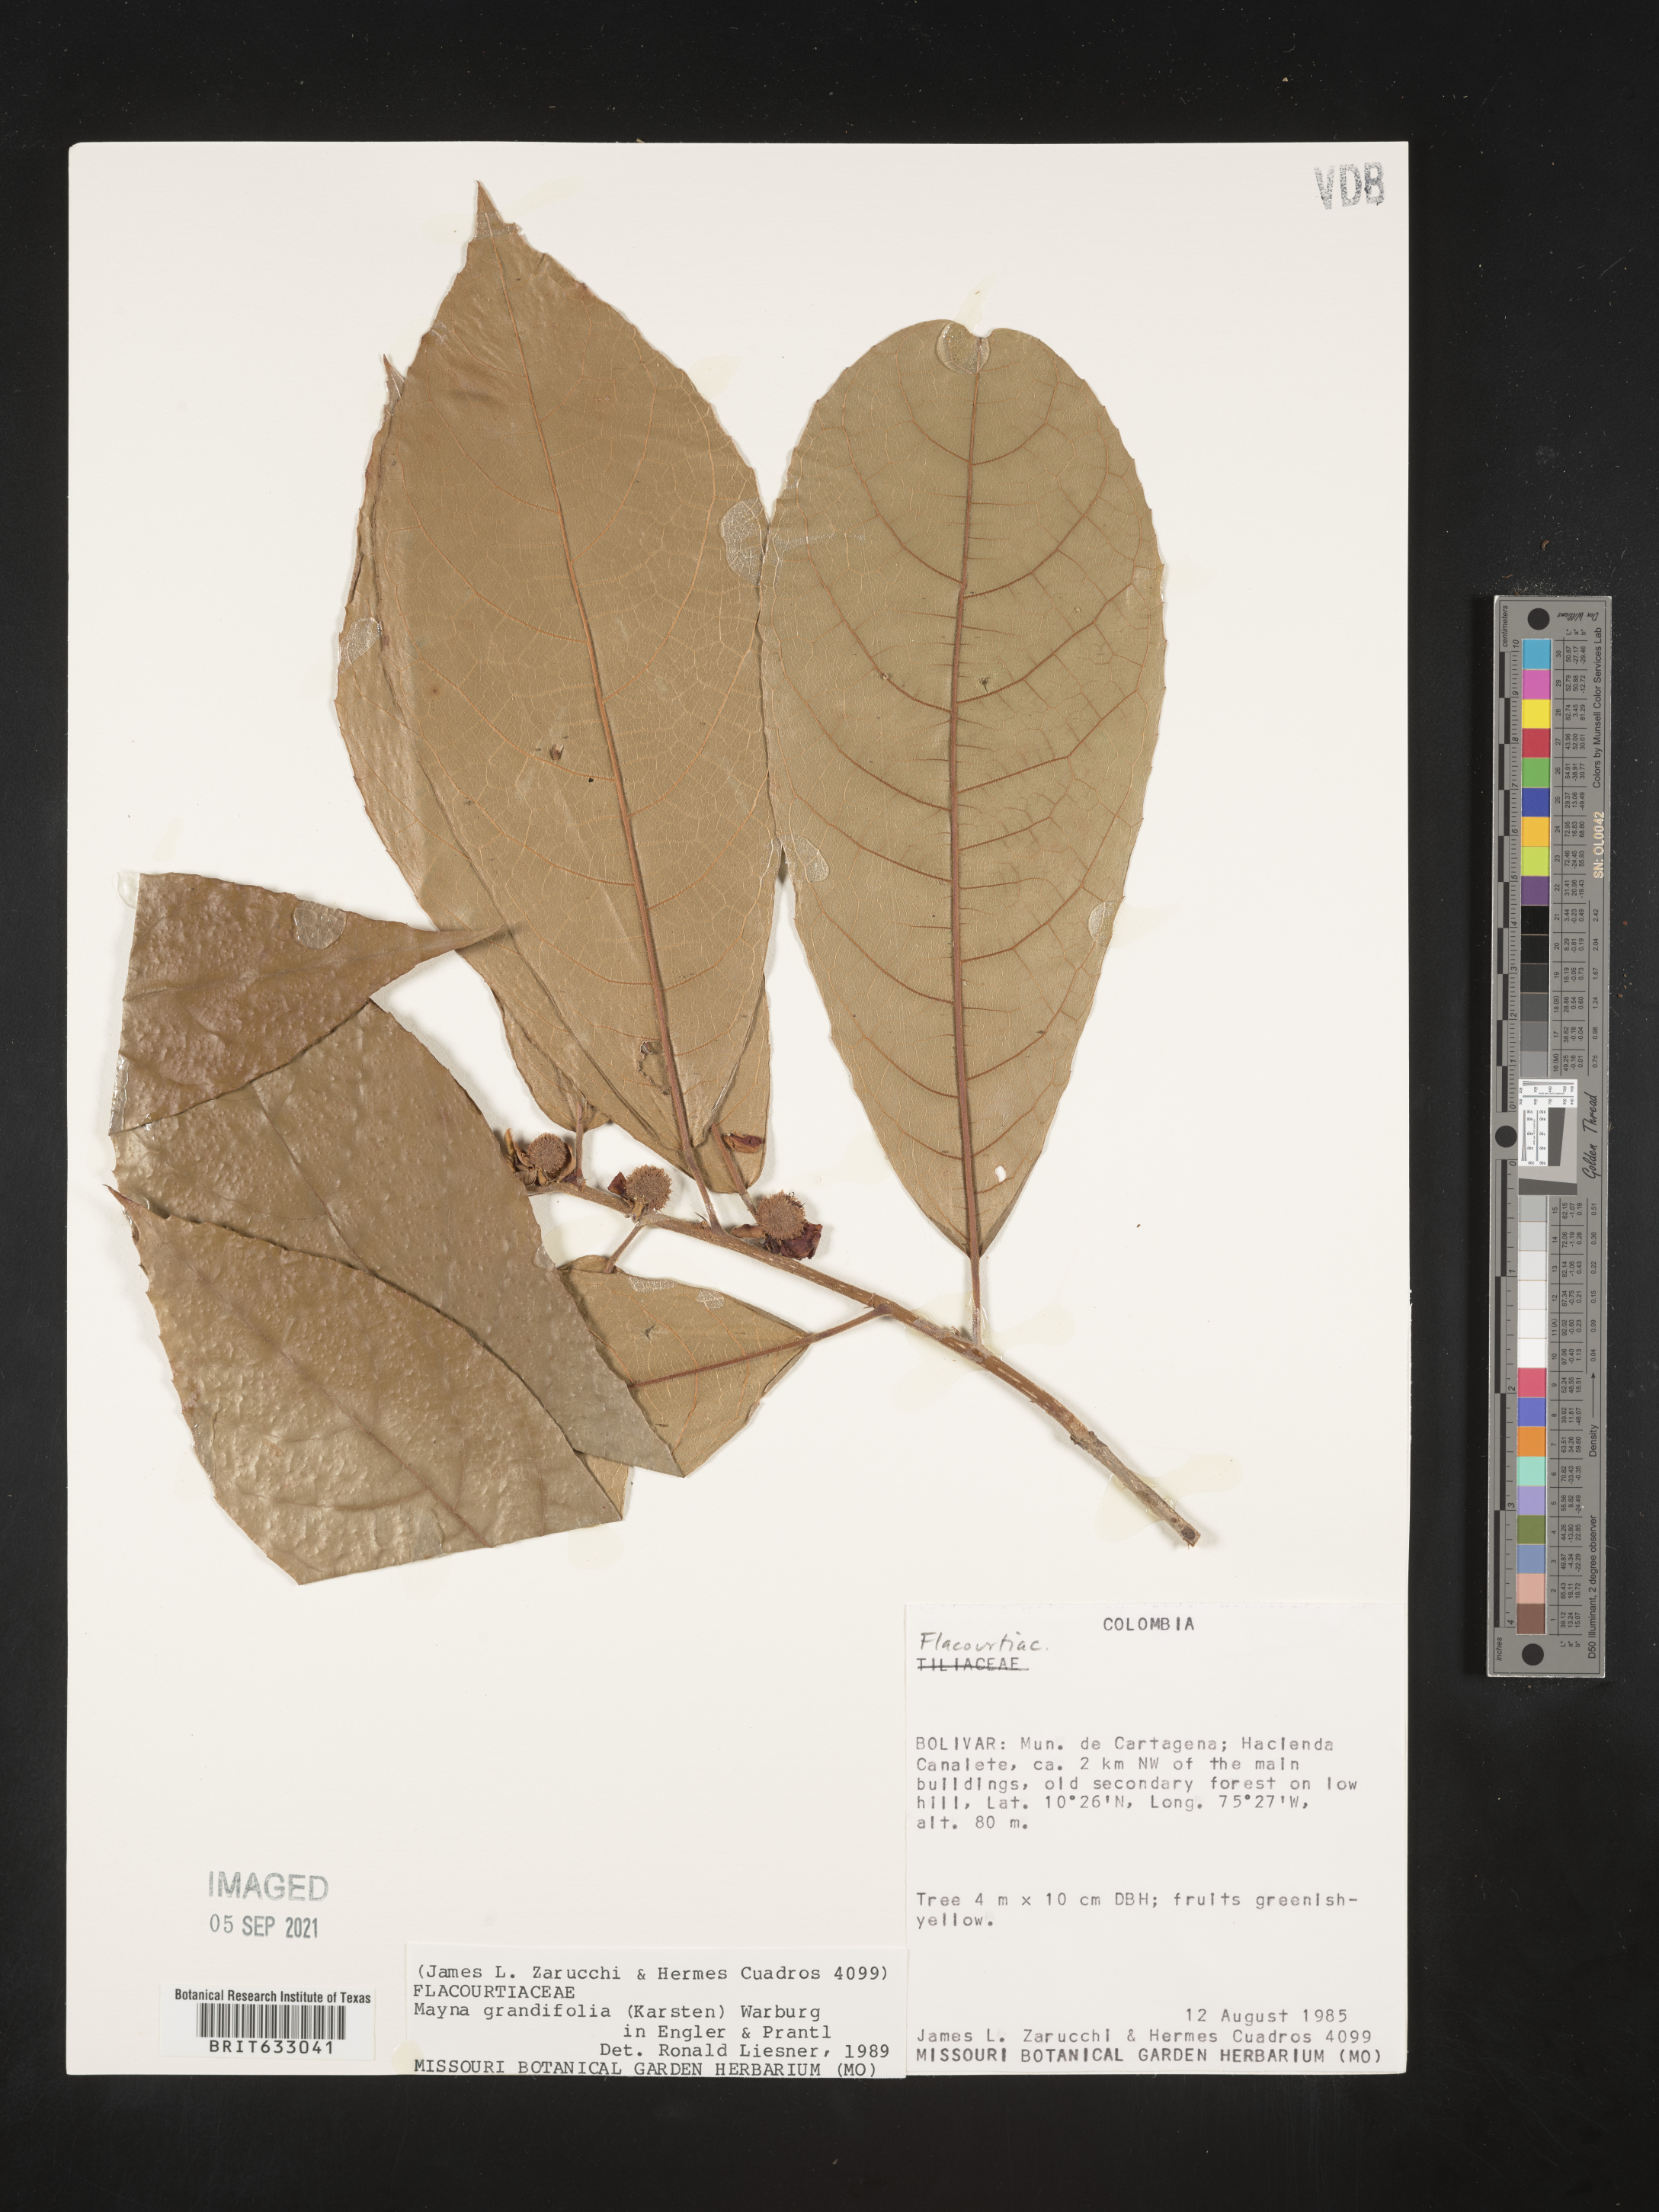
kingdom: Plantae
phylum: Tracheophyta
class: Magnoliopsida
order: Malpighiales
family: Achariaceae
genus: Mayna
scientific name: Mayna
